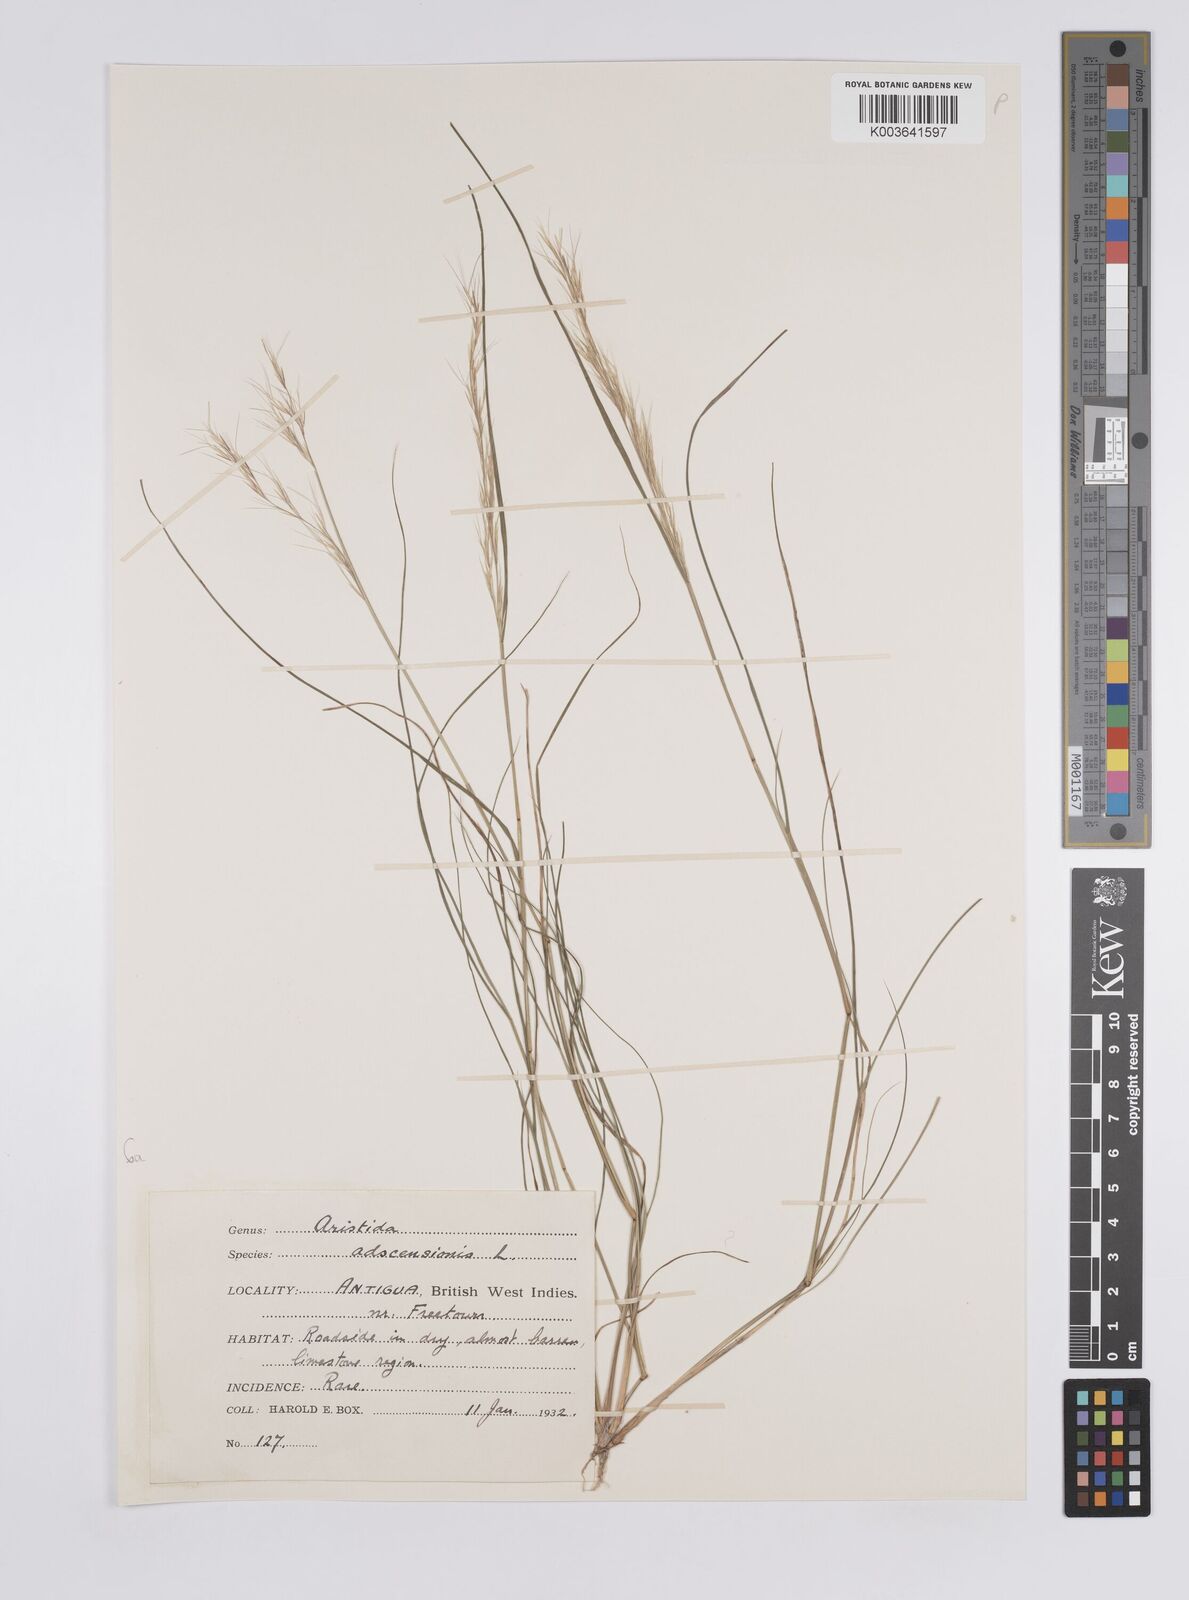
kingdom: Plantae
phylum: Tracheophyta
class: Liliopsida
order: Poales
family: Poaceae
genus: Aristida
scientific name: Aristida adscensionis
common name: Sixweeks threeawn
